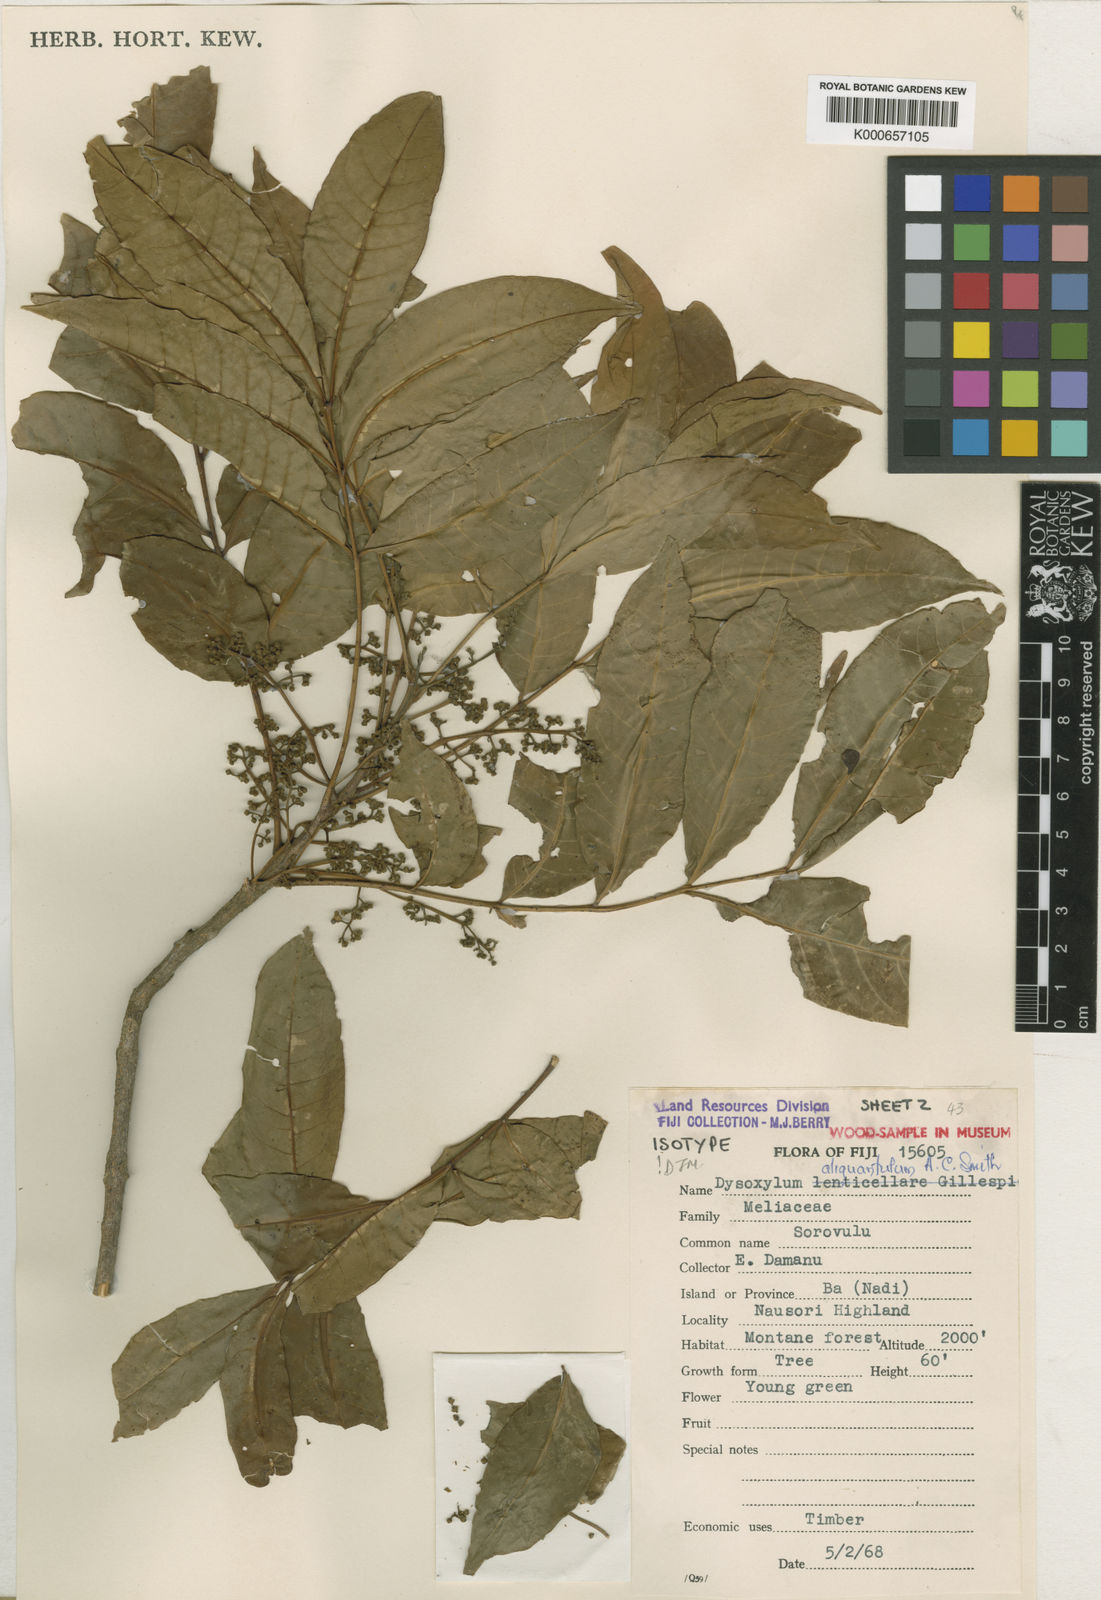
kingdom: Plantae
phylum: Tracheophyta
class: Magnoliopsida
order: Sapindales
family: Meliaceae
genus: Didymocheton
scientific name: Didymocheton aliquantulus
